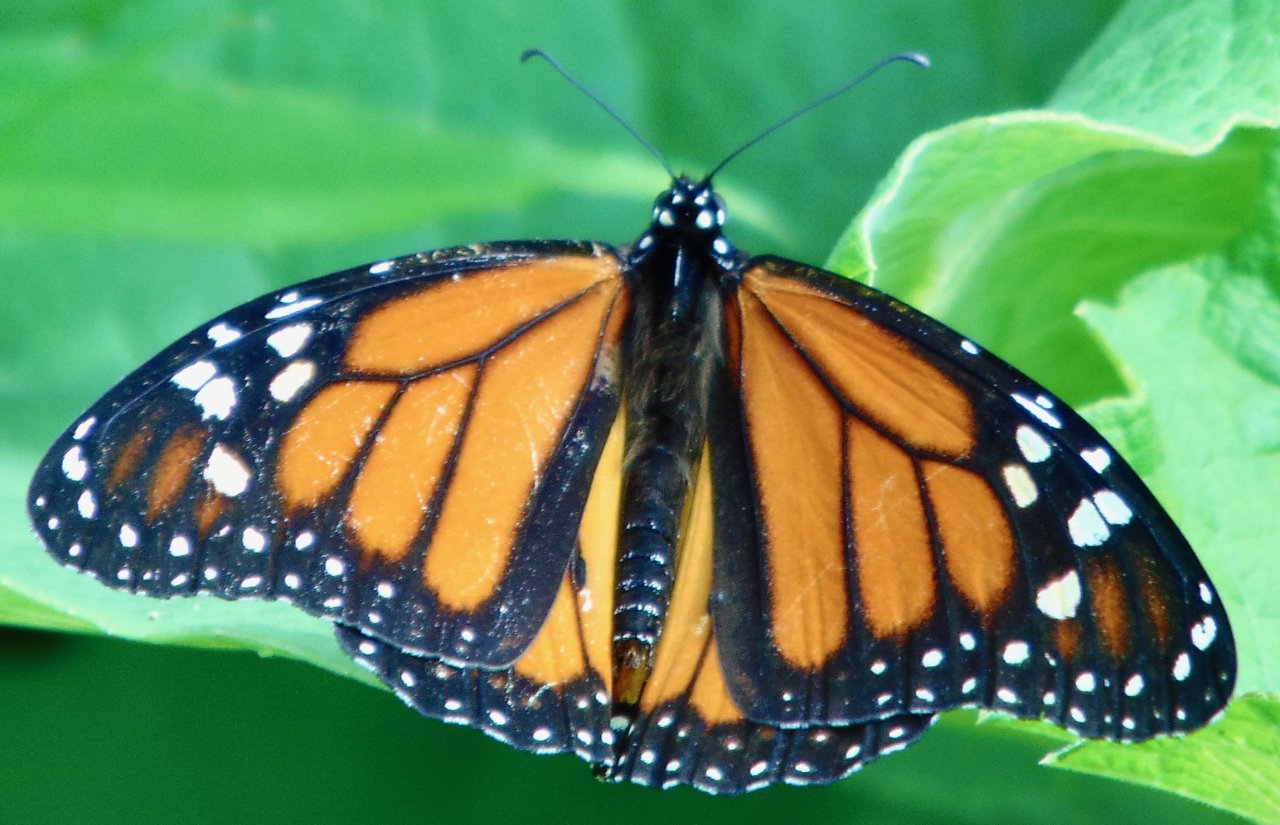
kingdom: Animalia
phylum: Arthropoda
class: Insecta
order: Lepidoptera
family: Nymphalidae
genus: Danaus
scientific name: Danaus plexippus
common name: Monarch
